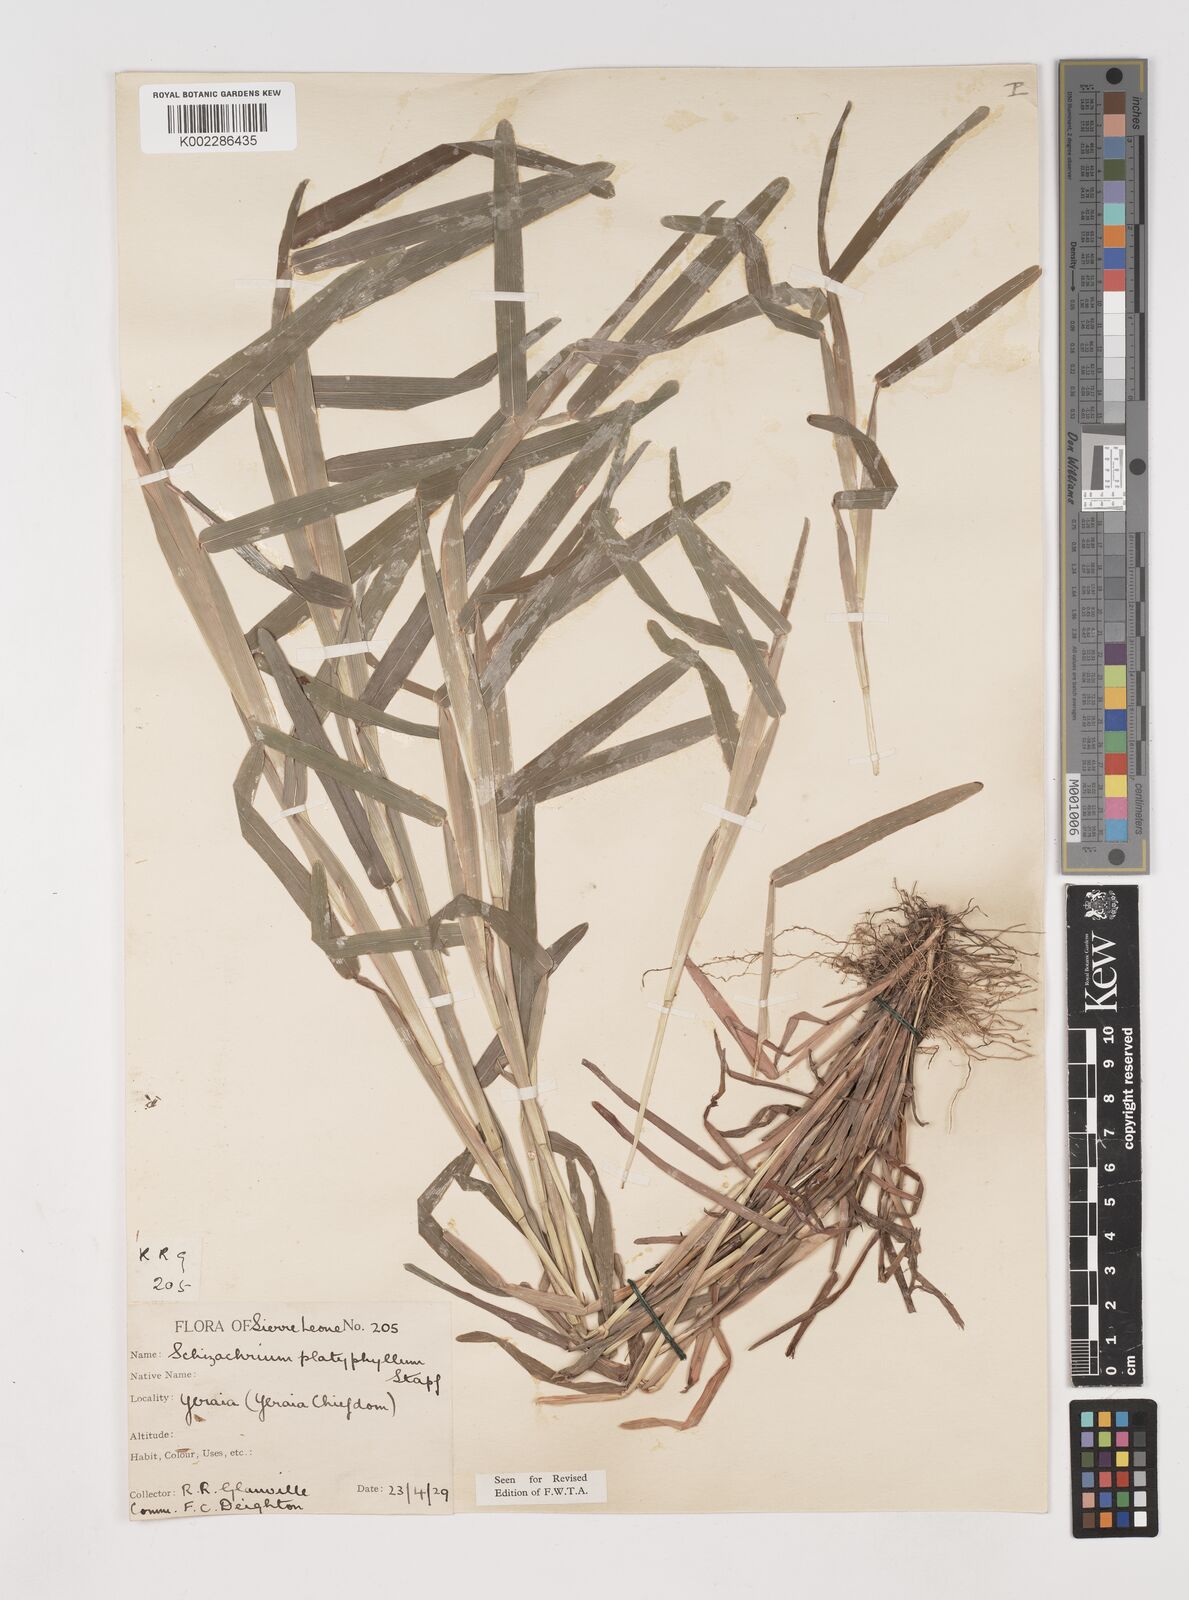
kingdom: Plantae
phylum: Tracheophyta
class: Liliopsida
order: Poales
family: Poaceae
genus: Schizachyrium
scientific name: Schizachyrium platyphyllum
